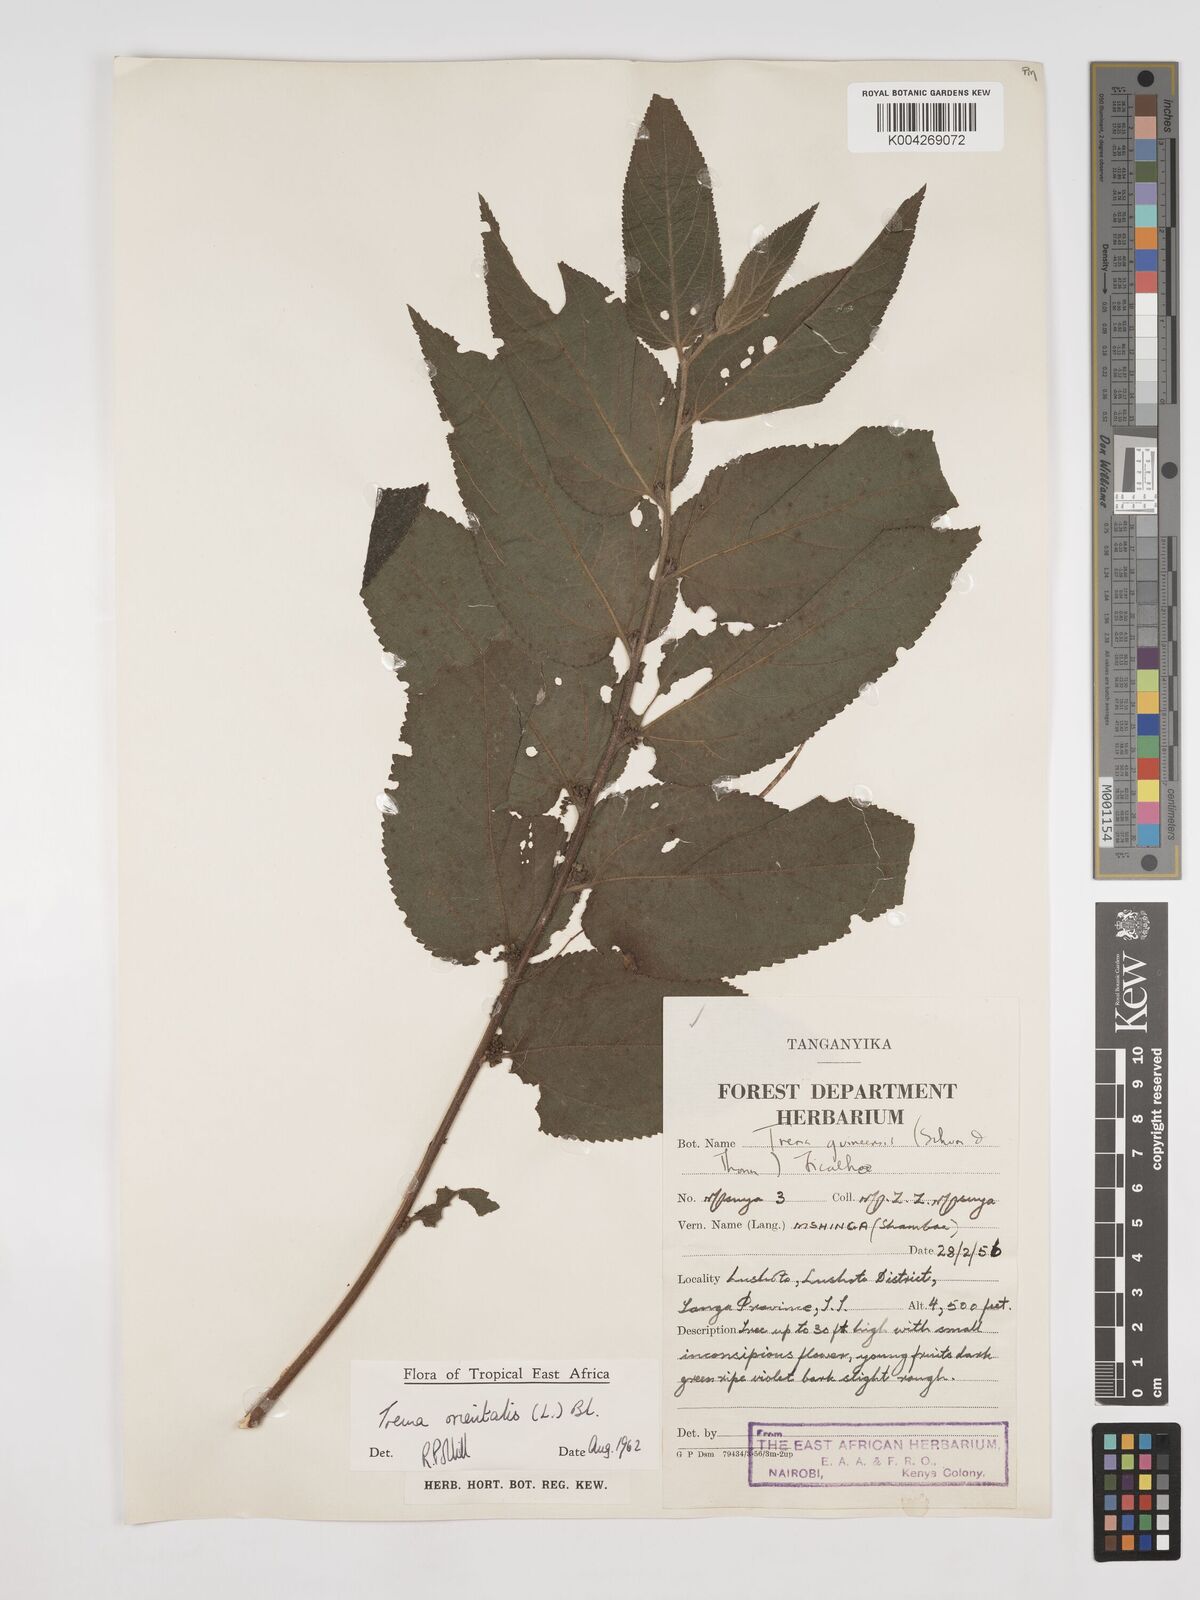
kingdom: Plantae
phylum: Tracheophyta
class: Magnoliopsida
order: Rosales
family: Cannabaceae
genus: Trema
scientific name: Trema orientale
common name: Indian charcoal tree
